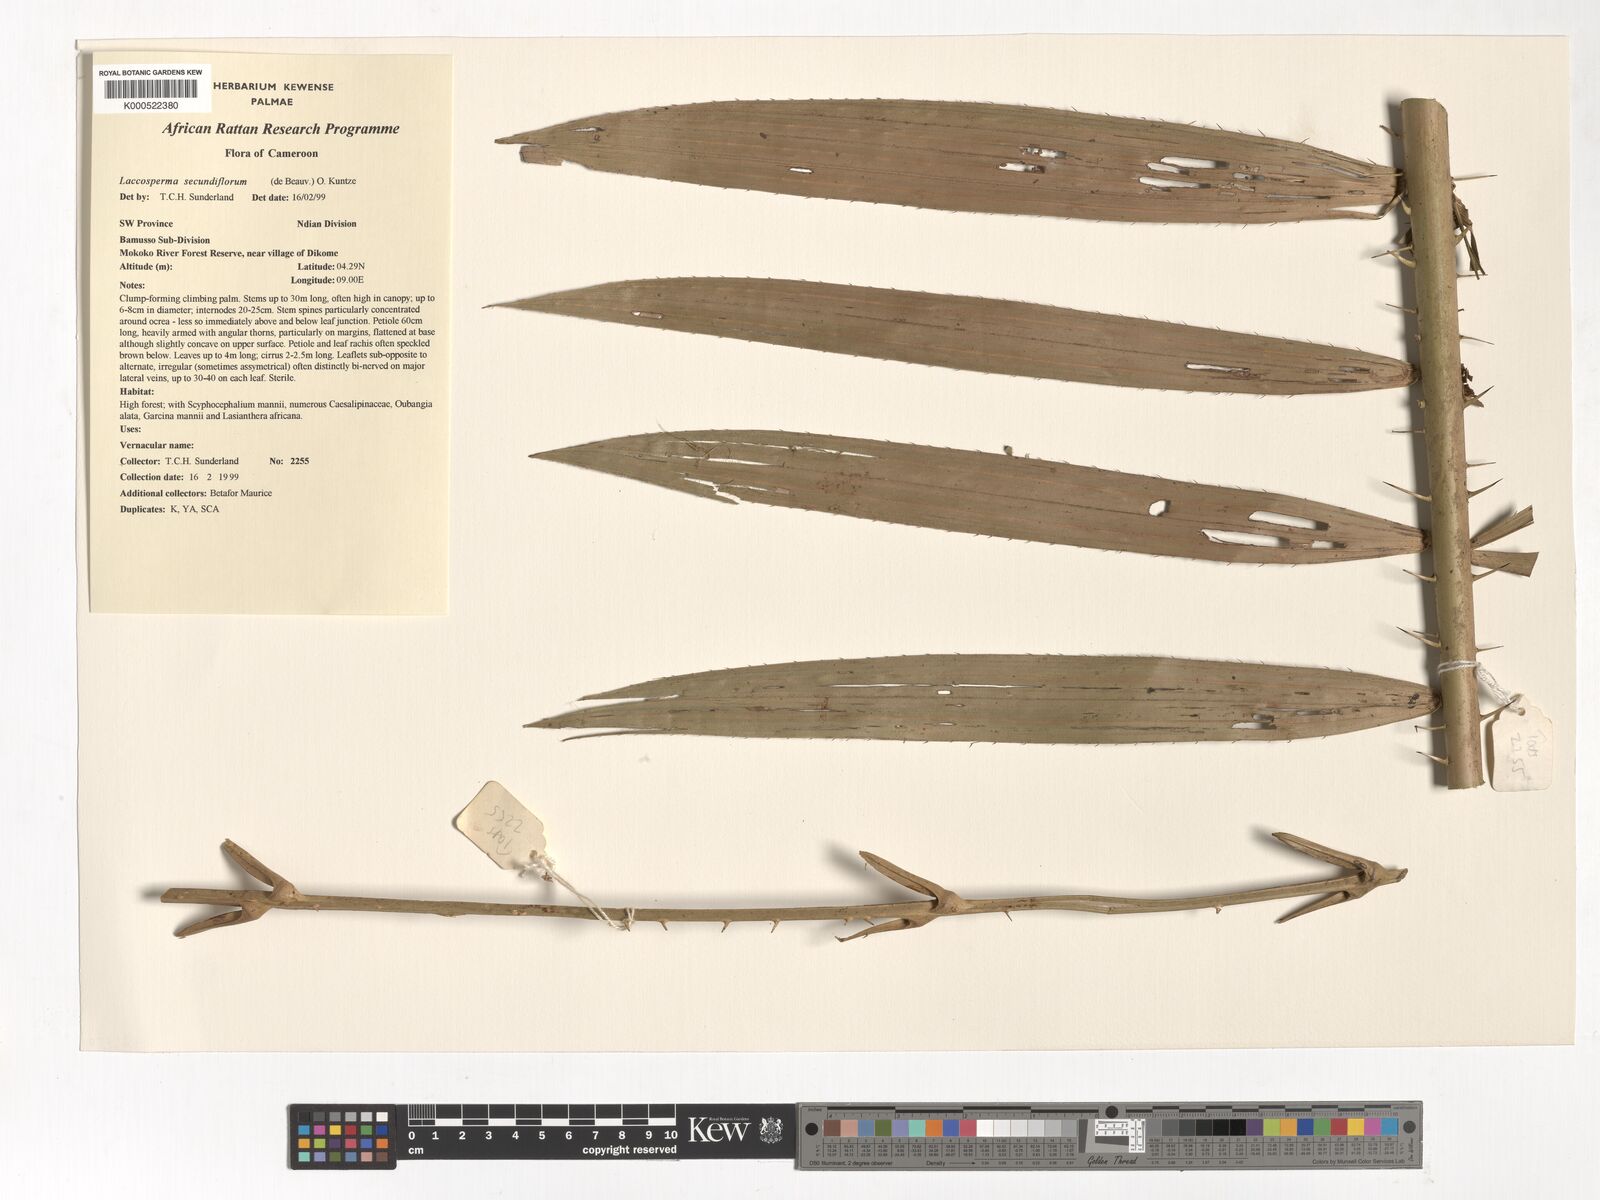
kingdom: Plantae
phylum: Tracheophyta
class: Liliopsida
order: Arecales
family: Arecaceae
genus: Laccosperma
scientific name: Laccosperma secundiflorum
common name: Rattan
